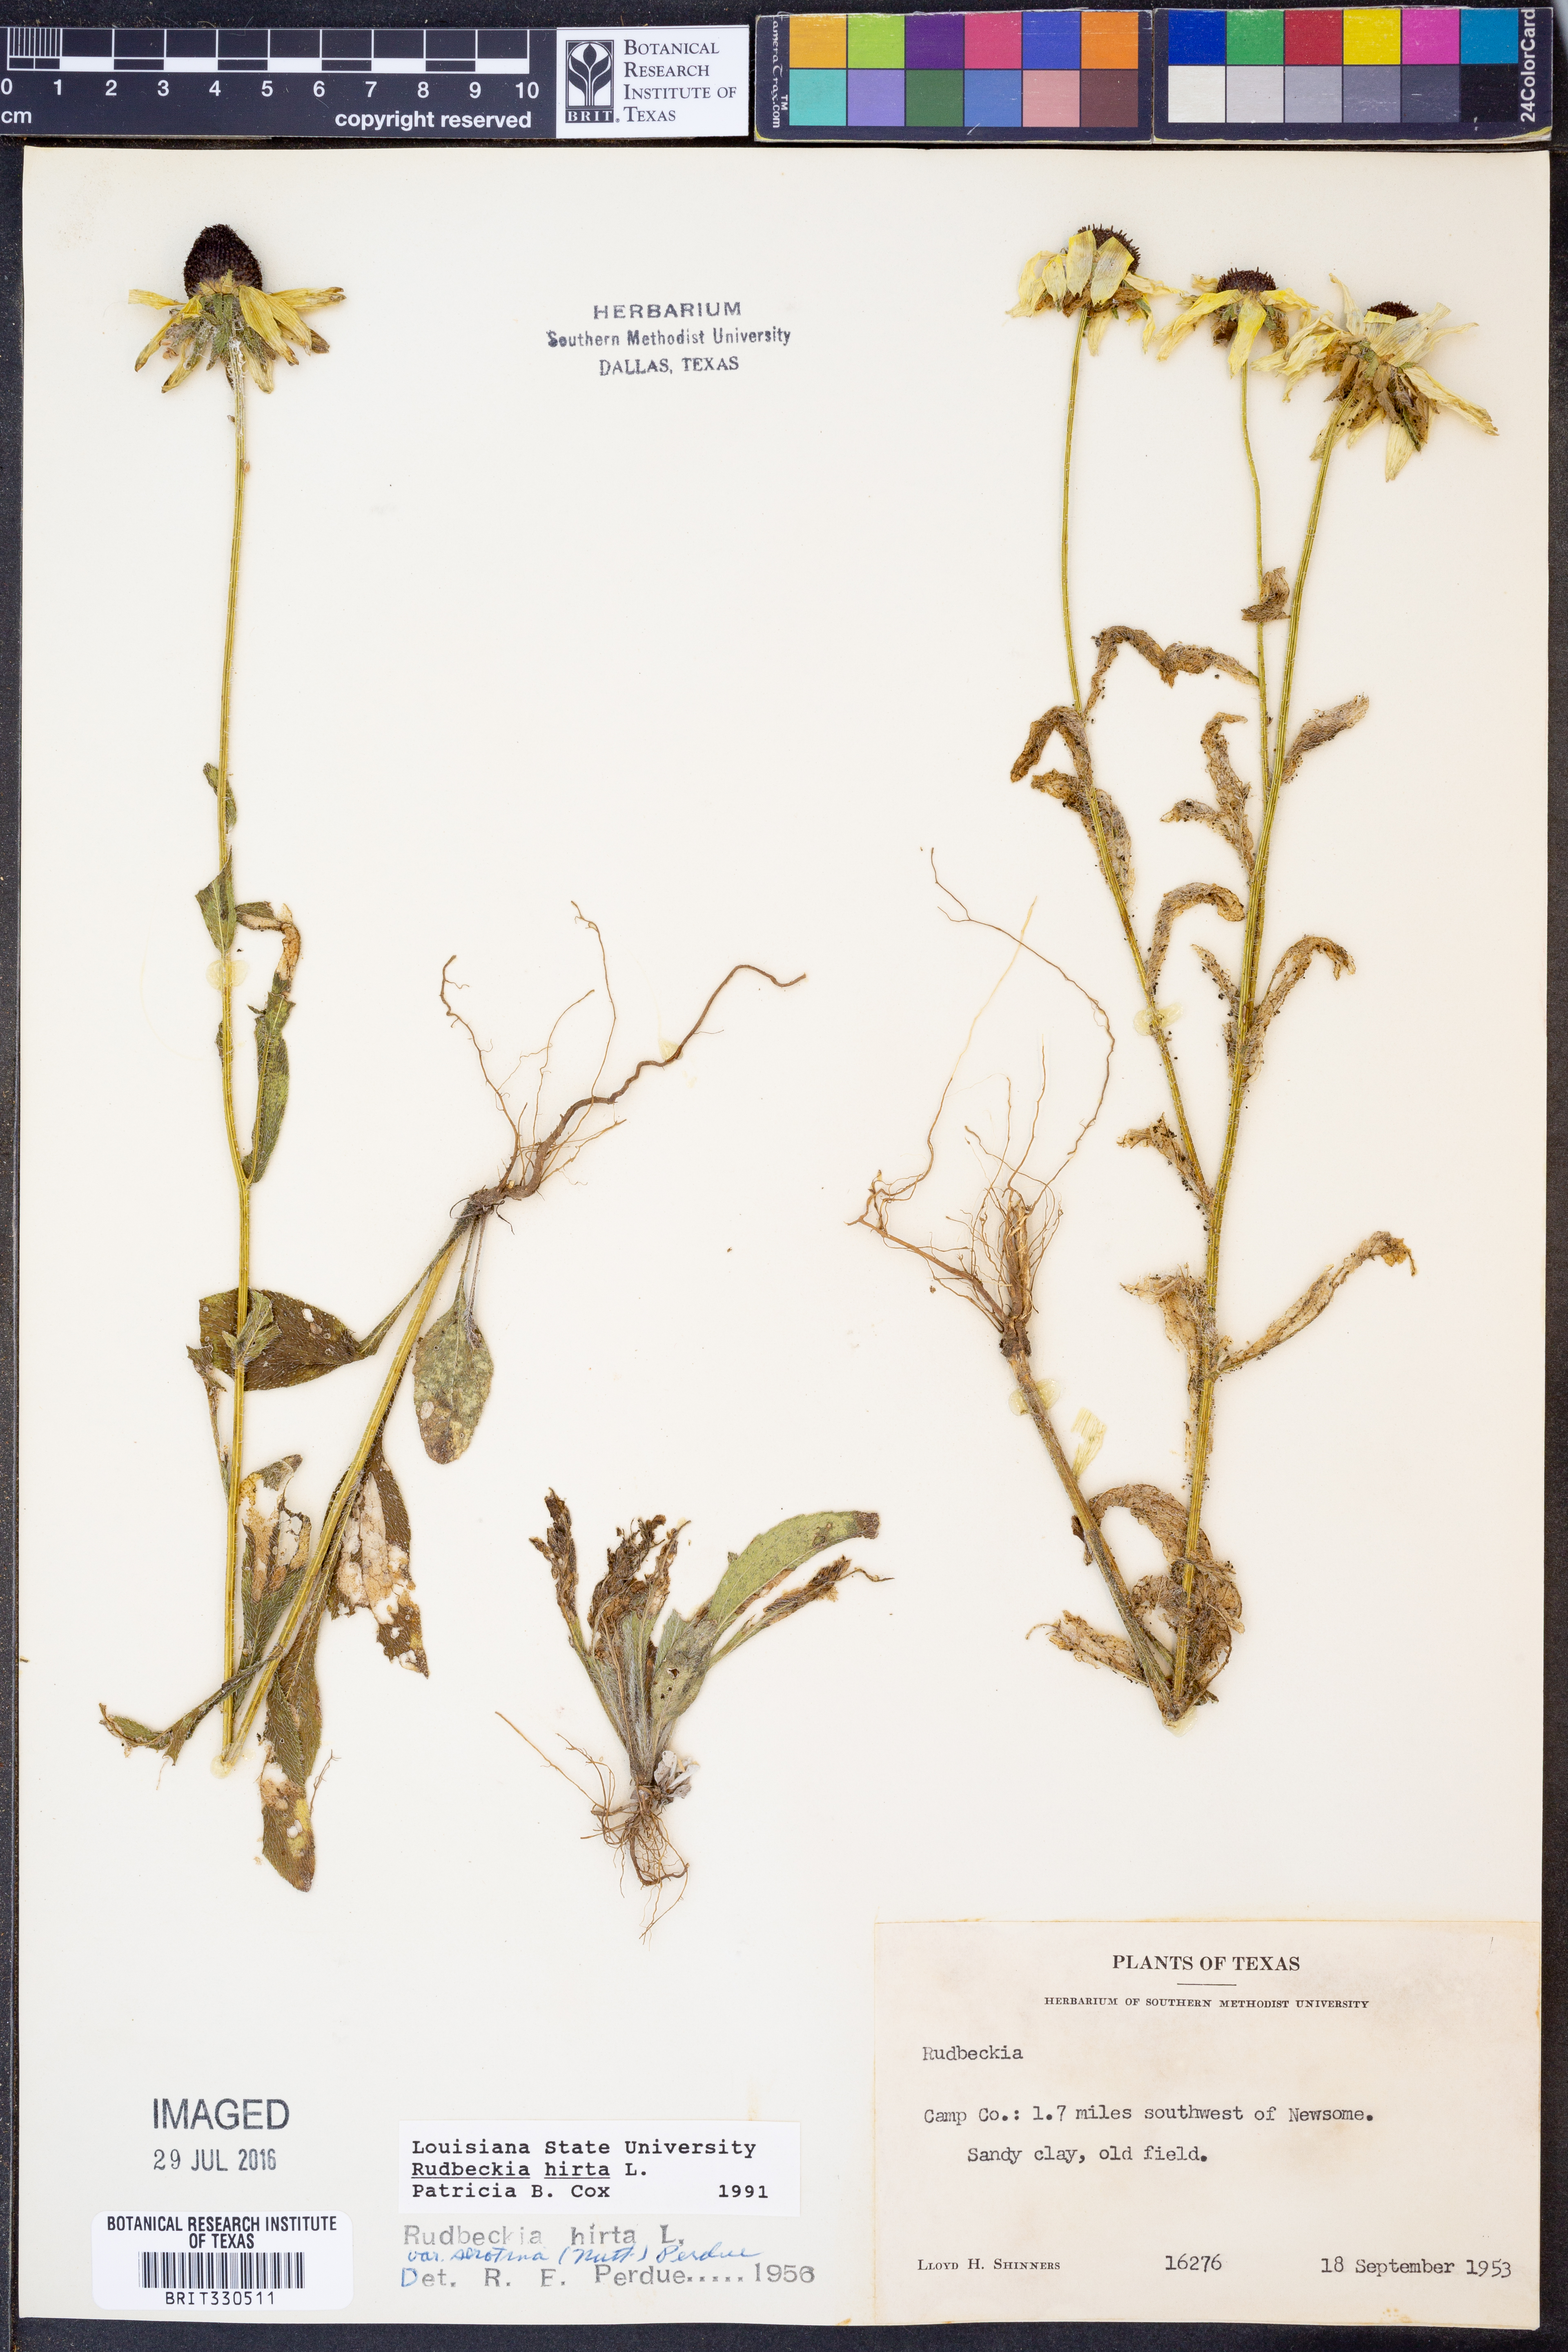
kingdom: Plantae
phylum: Tracheophyta
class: Magnoliopsida
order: Asterales
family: Asteraceae
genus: Rudbeckia
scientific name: Rudbeckia hirta
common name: Black-eyed-susan
